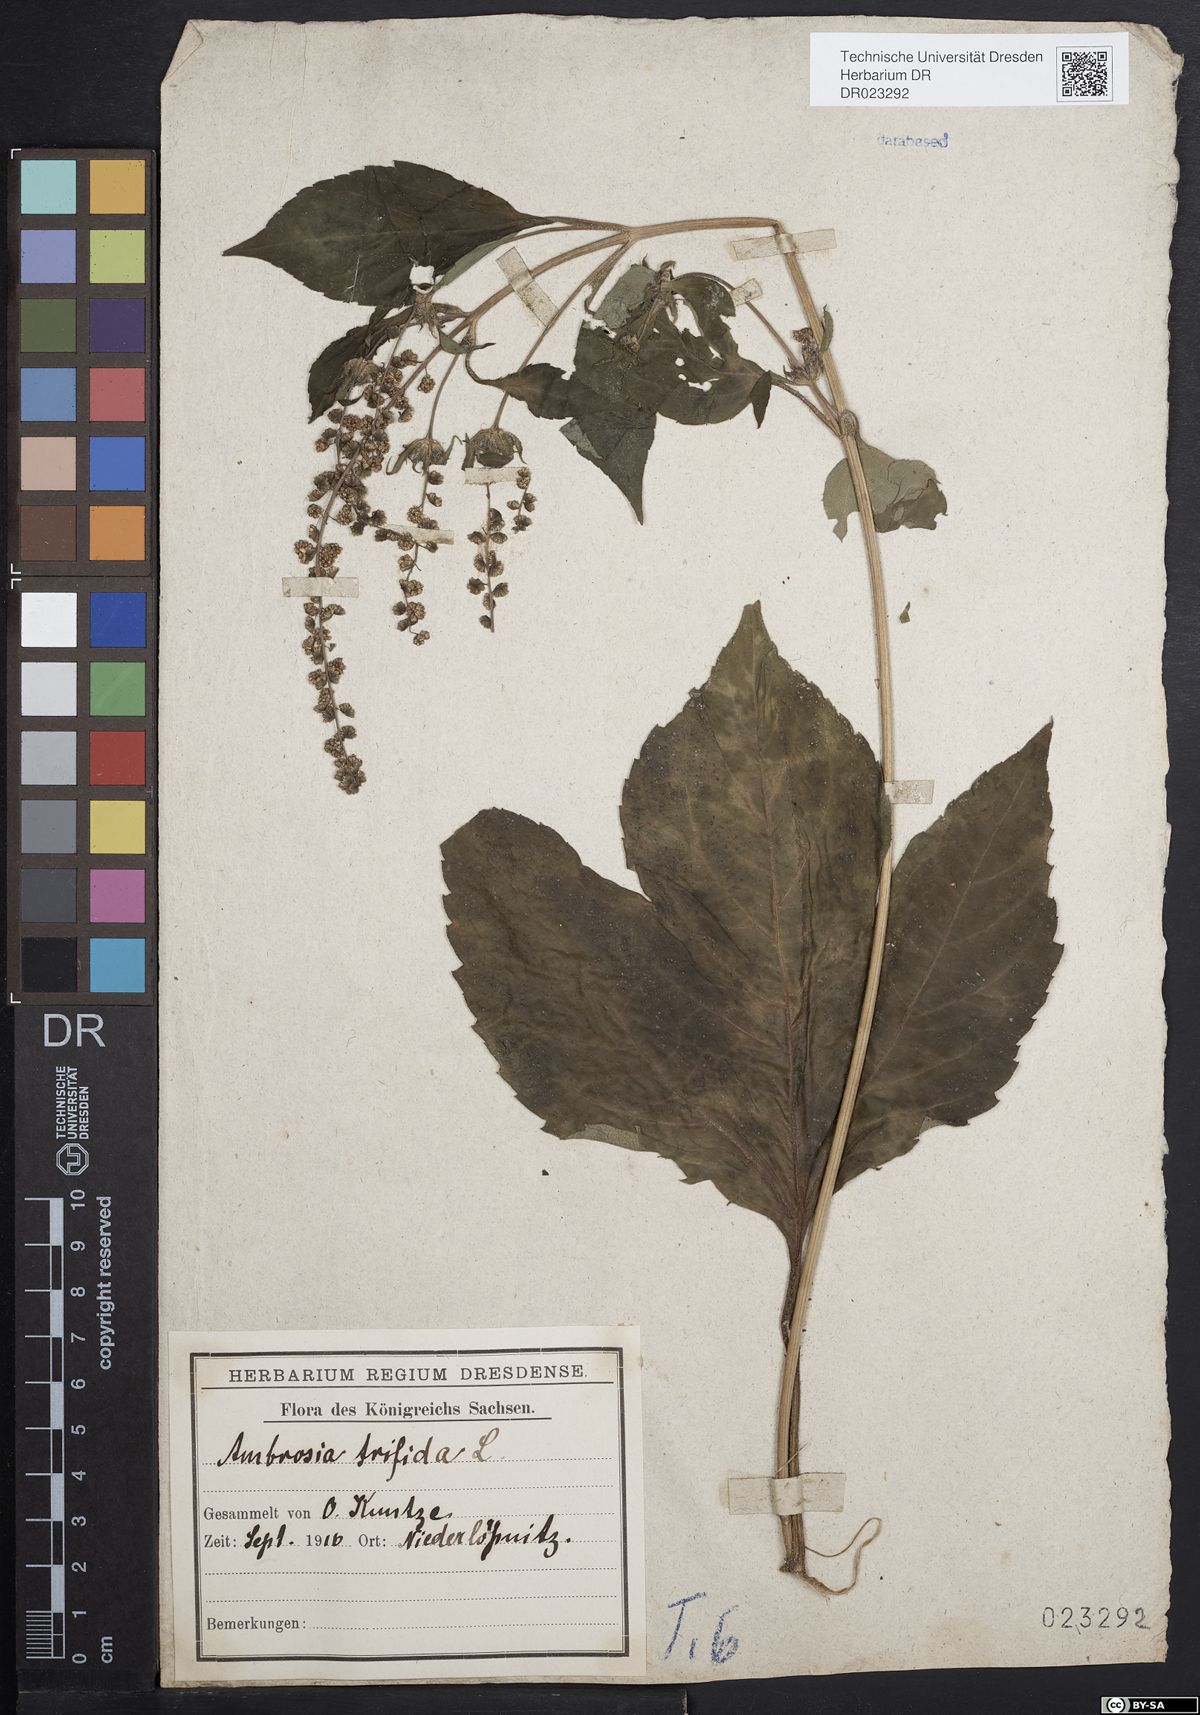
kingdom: Plantae
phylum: Tracheophyta
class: Magnoliopsida
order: Asterales
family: Asteraceae
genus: Ambrosia
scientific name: Ambrosia trifida
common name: Giant ragweed
